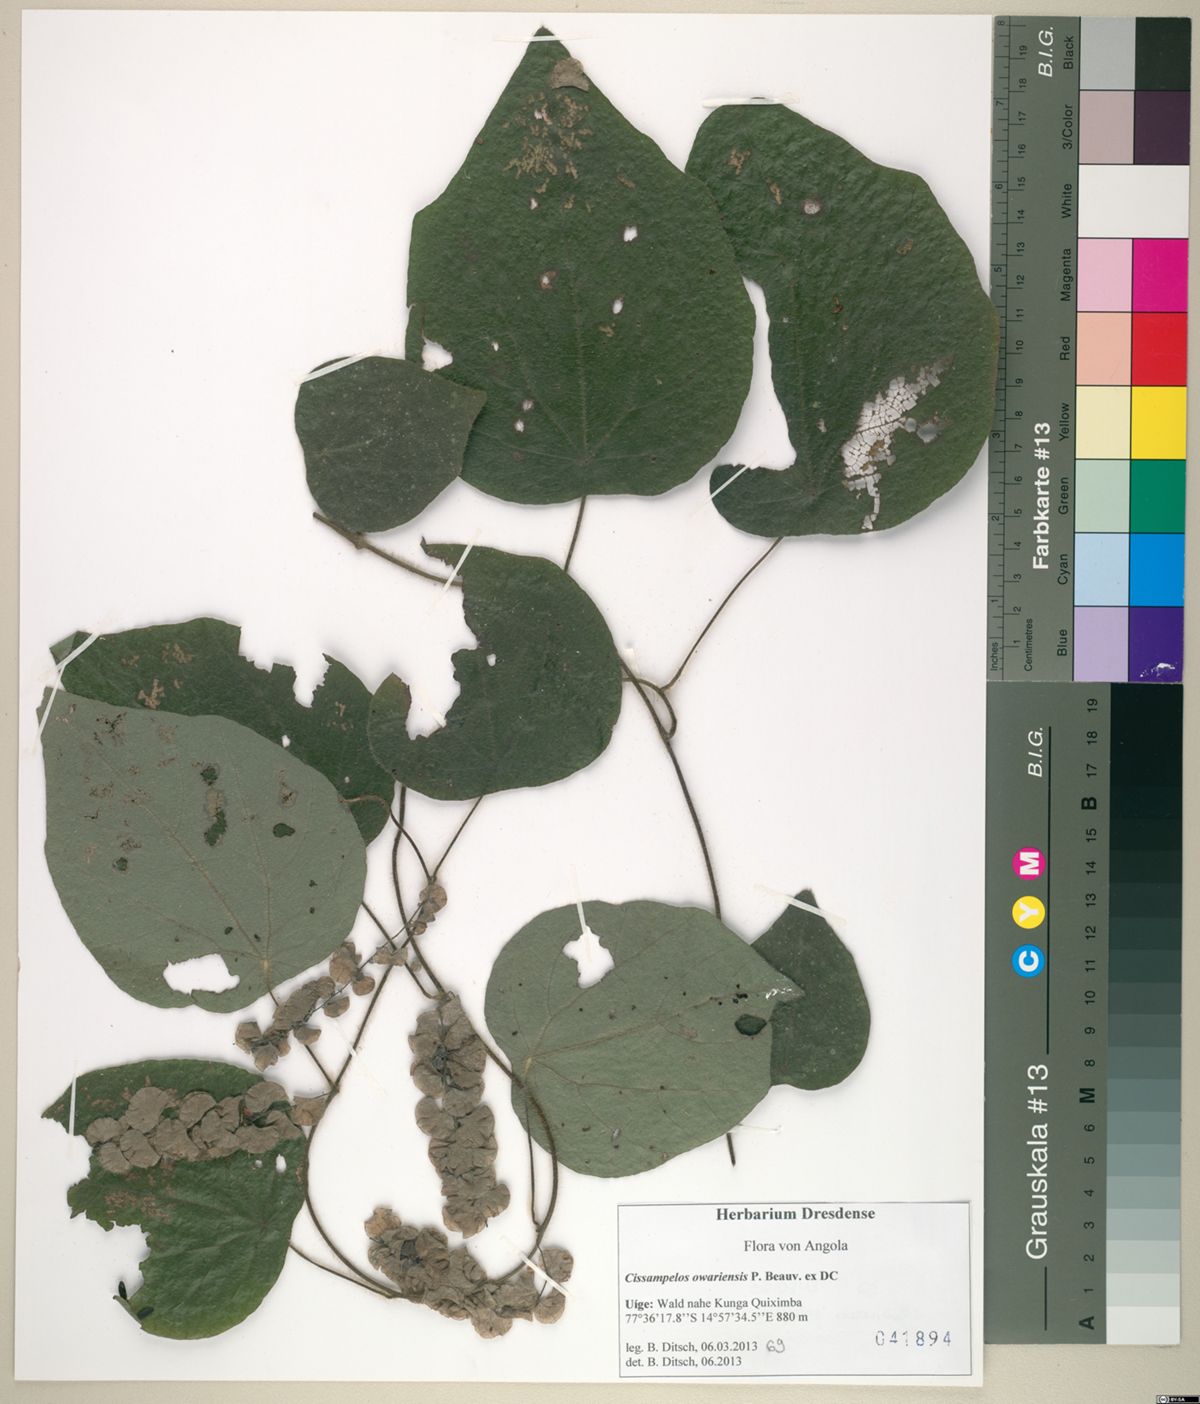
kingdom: Plantae
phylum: Tracheophyta
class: Magnoliopsida
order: Ranunculales
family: Menispermaceae
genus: Cissampelos
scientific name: Cissampelos owariensis
